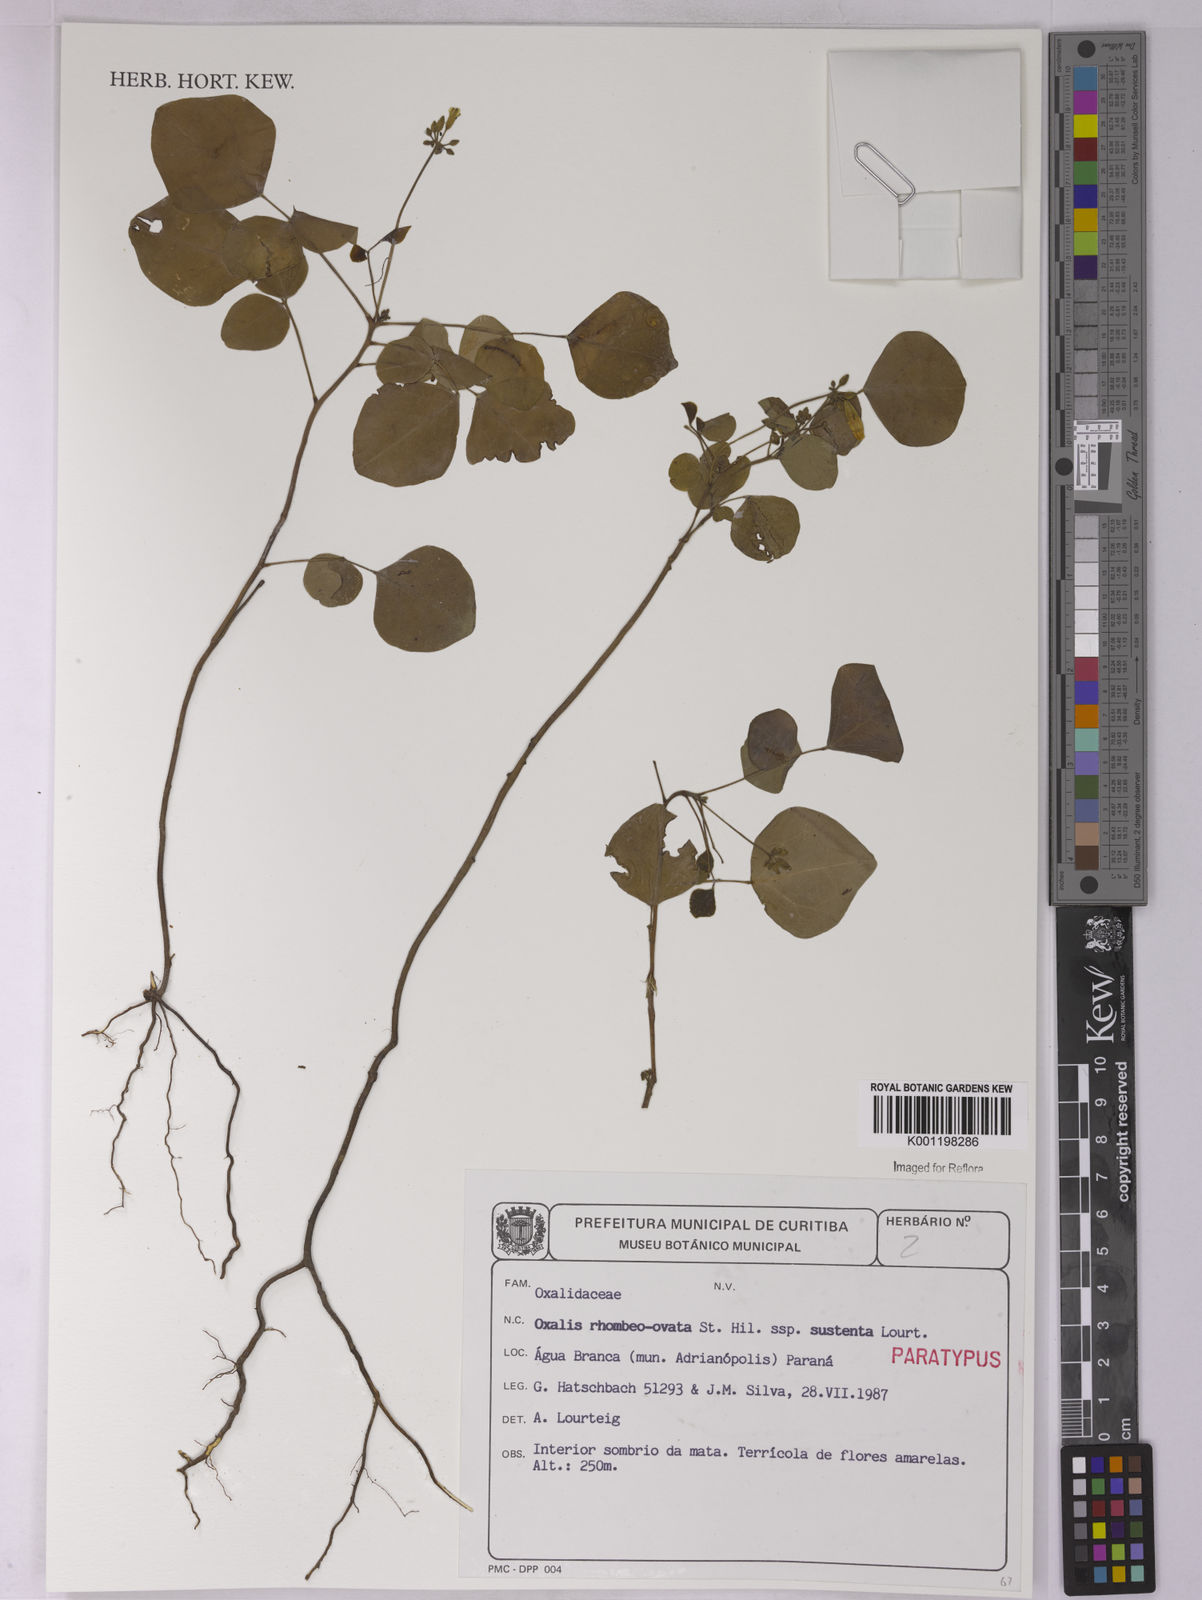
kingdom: Plantae
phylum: Tracheophyta
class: Magnoliopsida
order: Oxalidales
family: Oxalidaceae
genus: Oxalis
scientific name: Oxalis rhombeo-ovata
